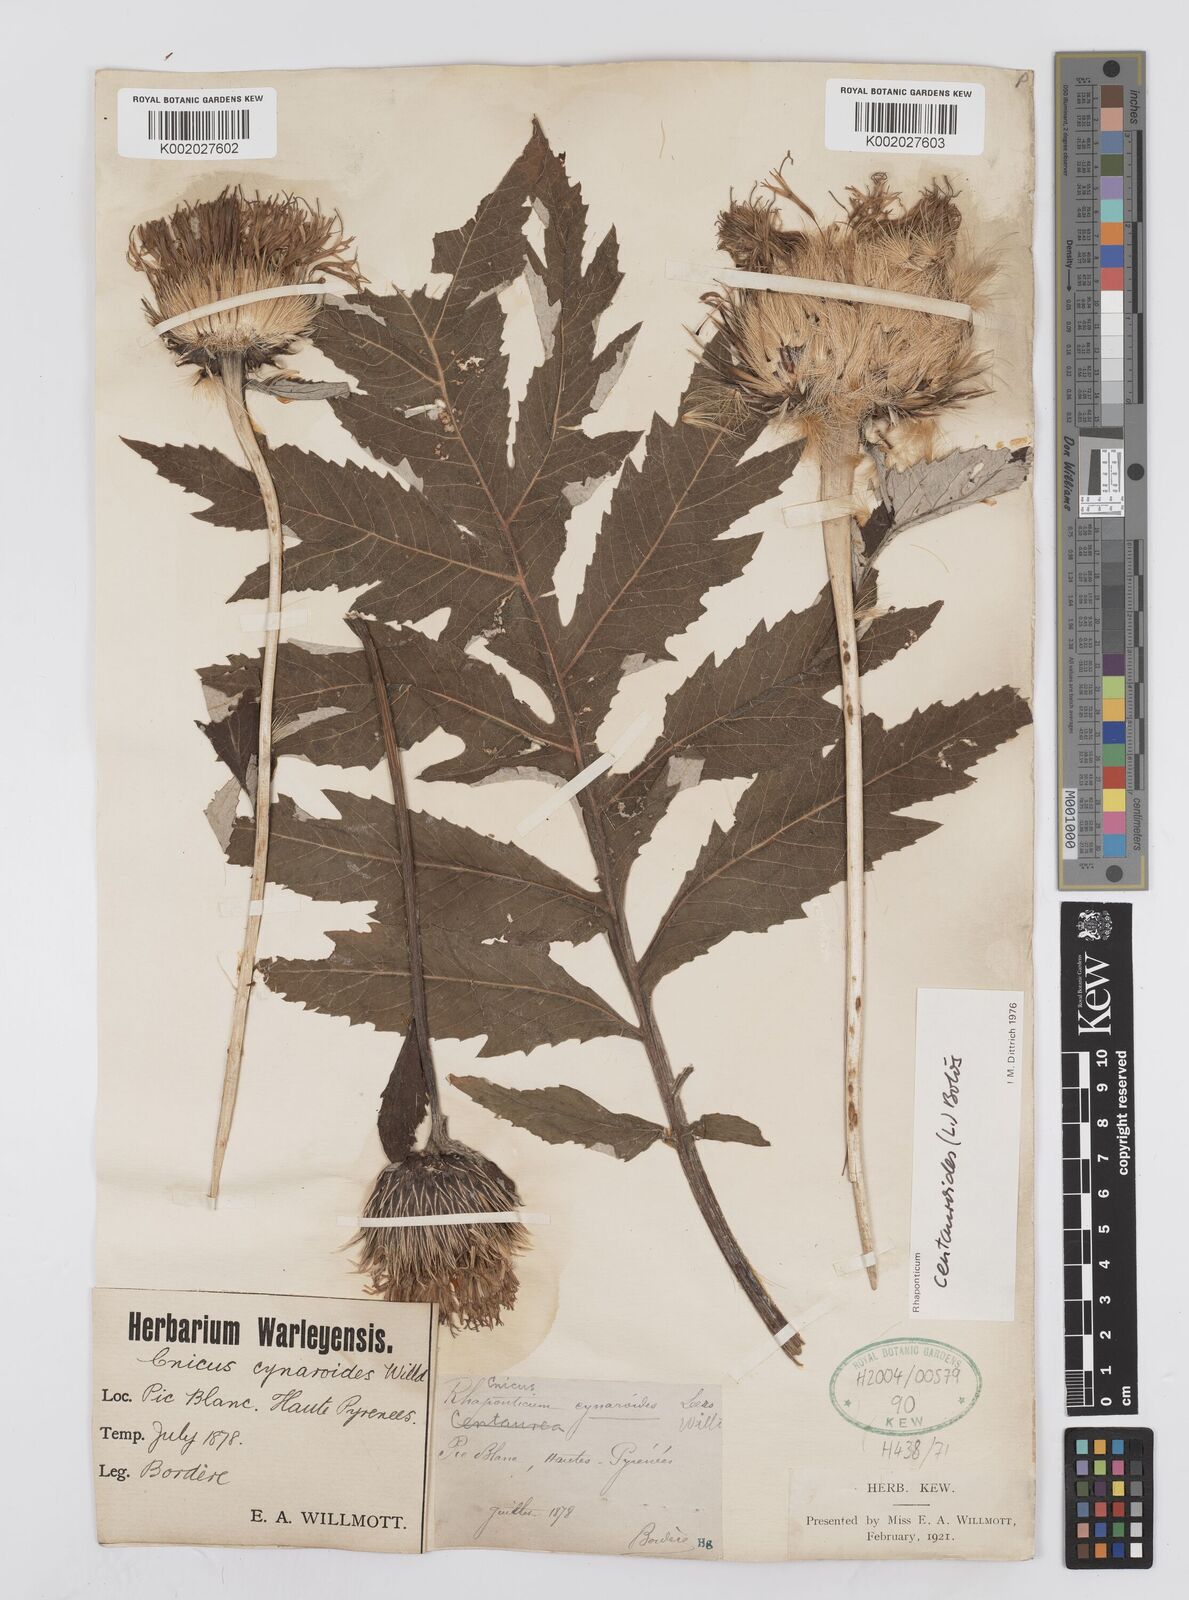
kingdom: Plantae
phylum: Tracheophyta
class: Magnoliopsida
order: Asterales
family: Asteraceae
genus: Leuzea
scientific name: Leuzea centauroides
